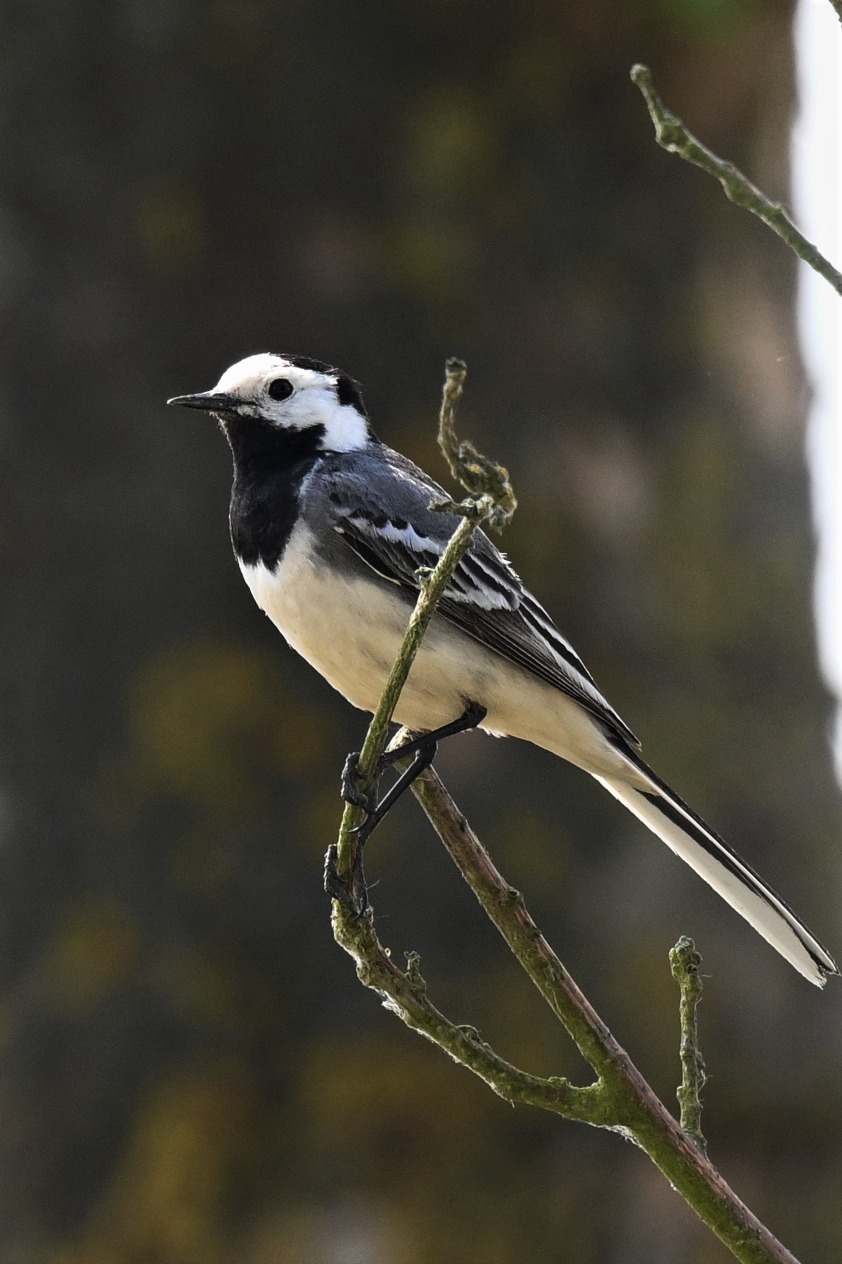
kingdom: Animalia
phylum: Chordata
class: Aves
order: Passeriformes
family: Motacillidae
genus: Motacilla
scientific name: Motacilla alba
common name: Hvid vipstjert
